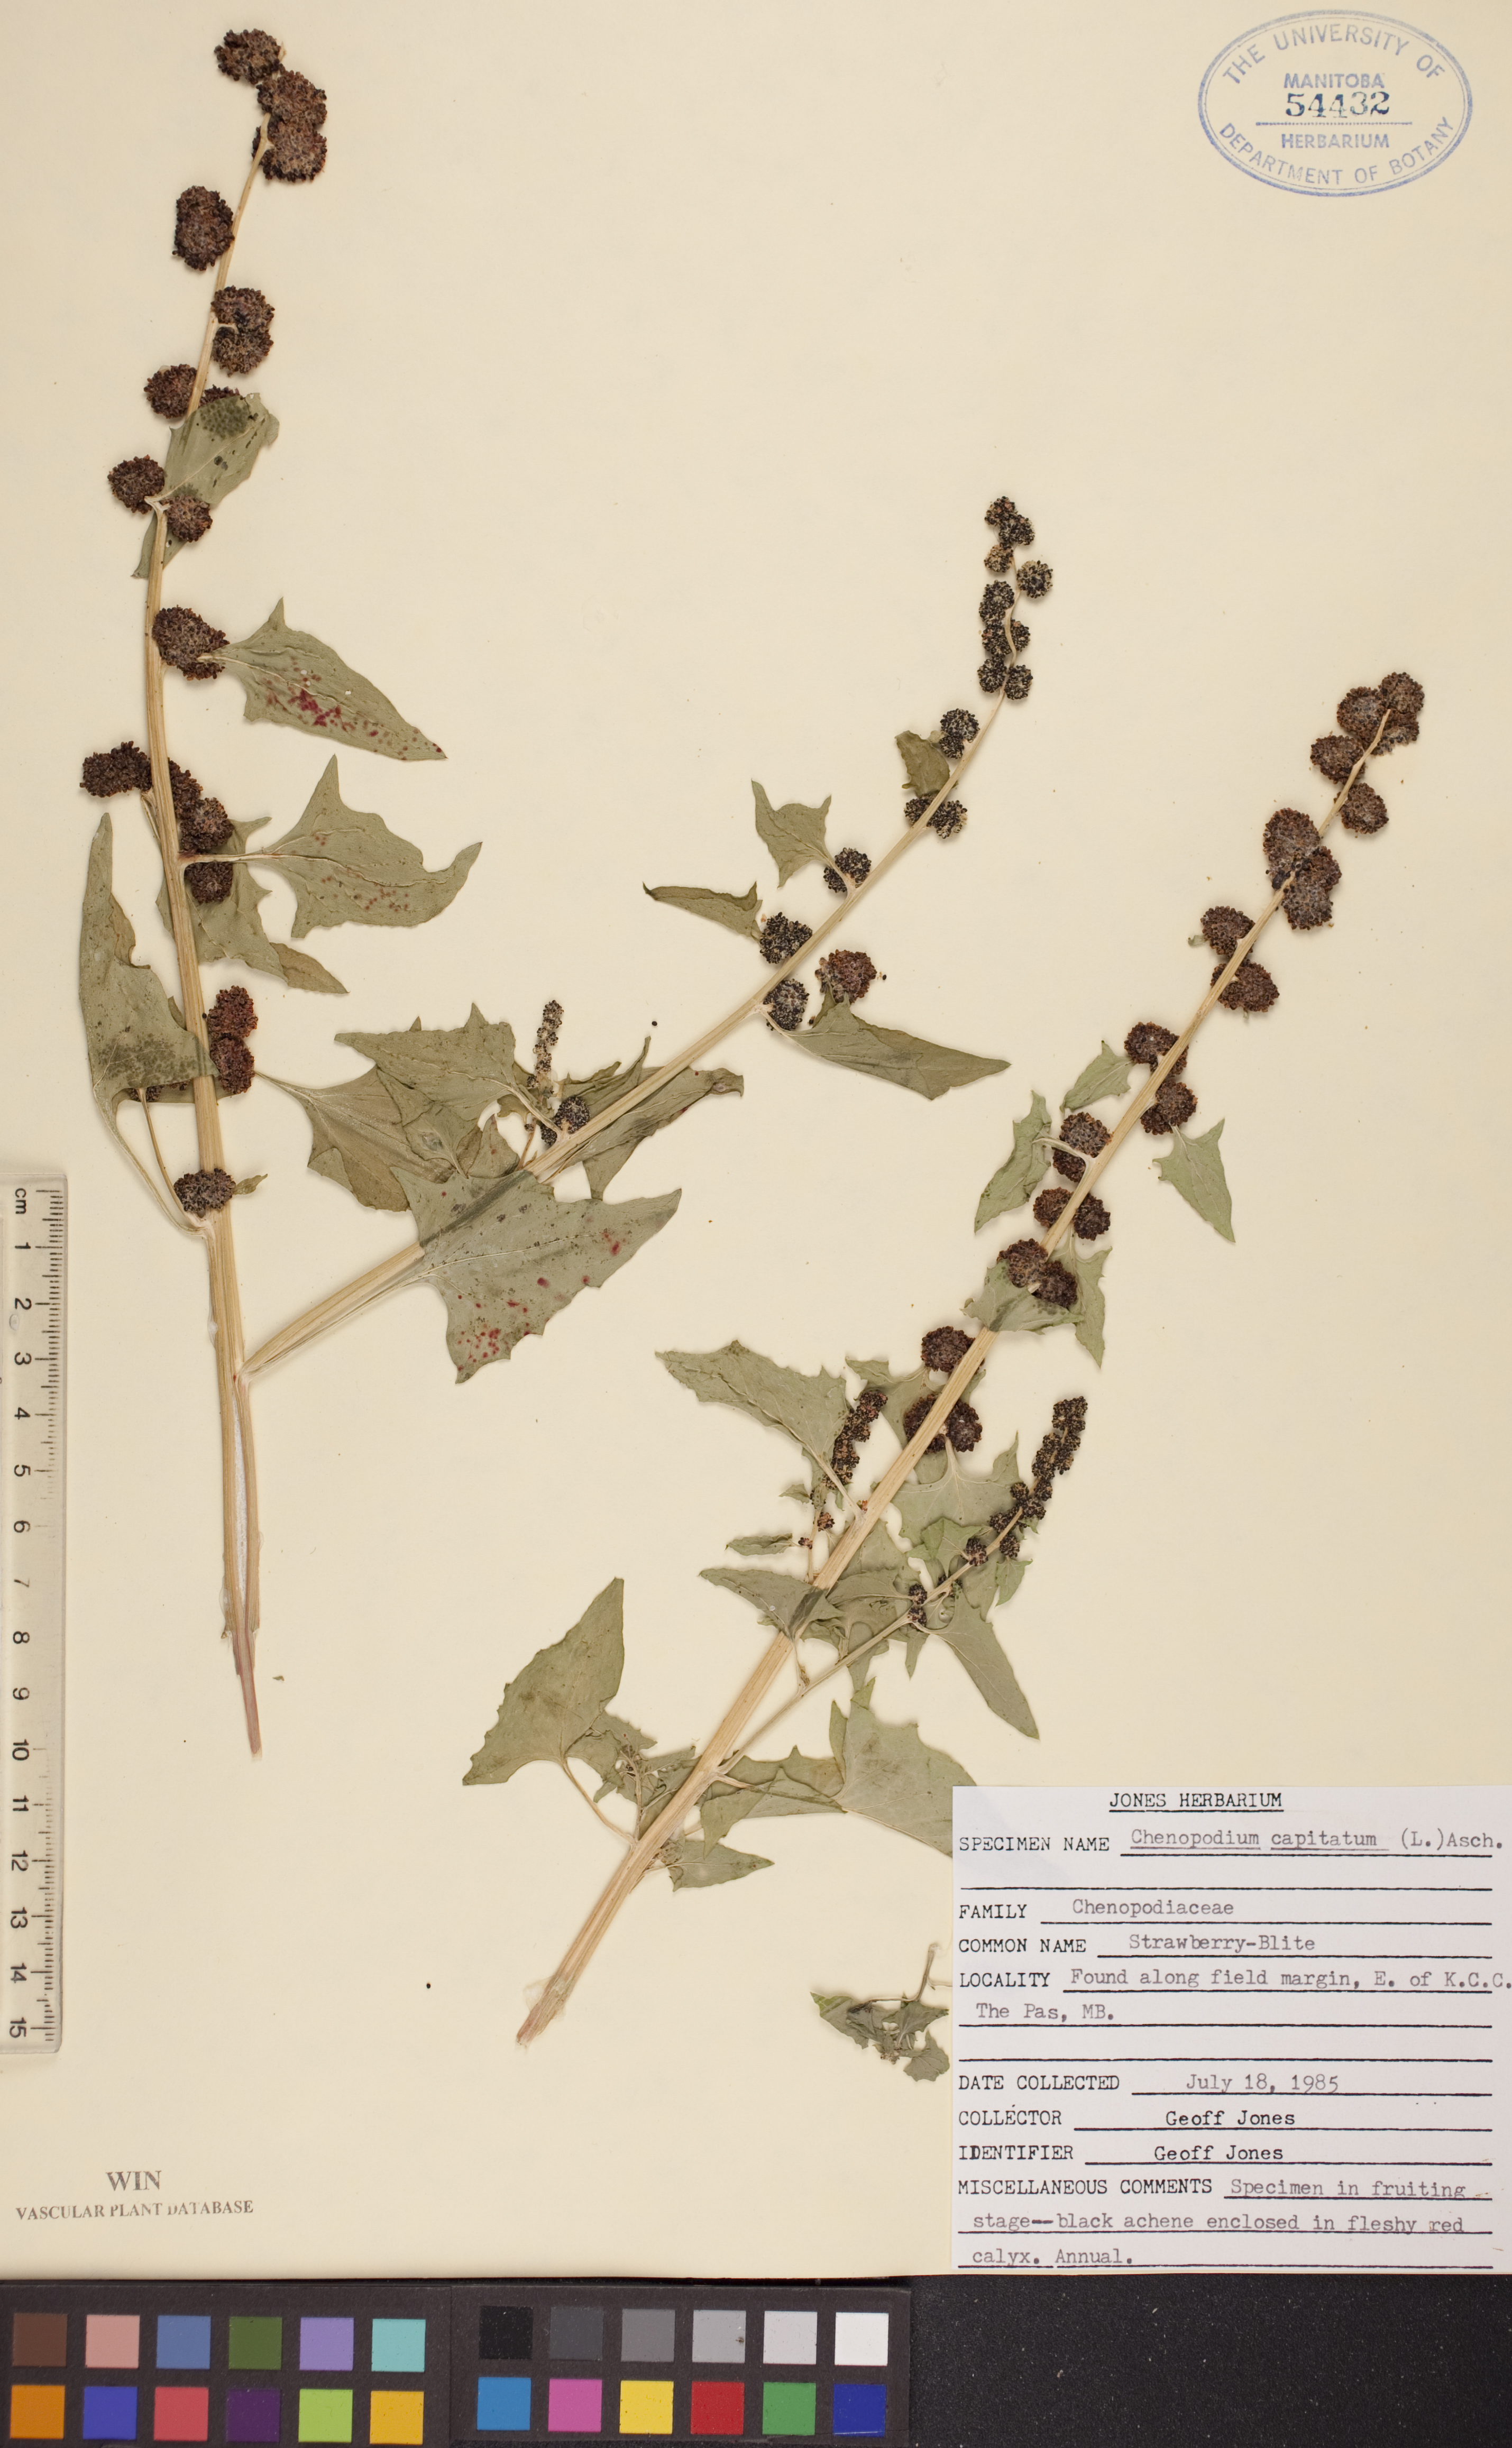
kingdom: Plantae
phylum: Tracheophyta
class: Magnoliopsida
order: Caryophyllales
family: Amaranthaceae
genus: Blitum
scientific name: Blitum capitatum
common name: Strawberry-blight
